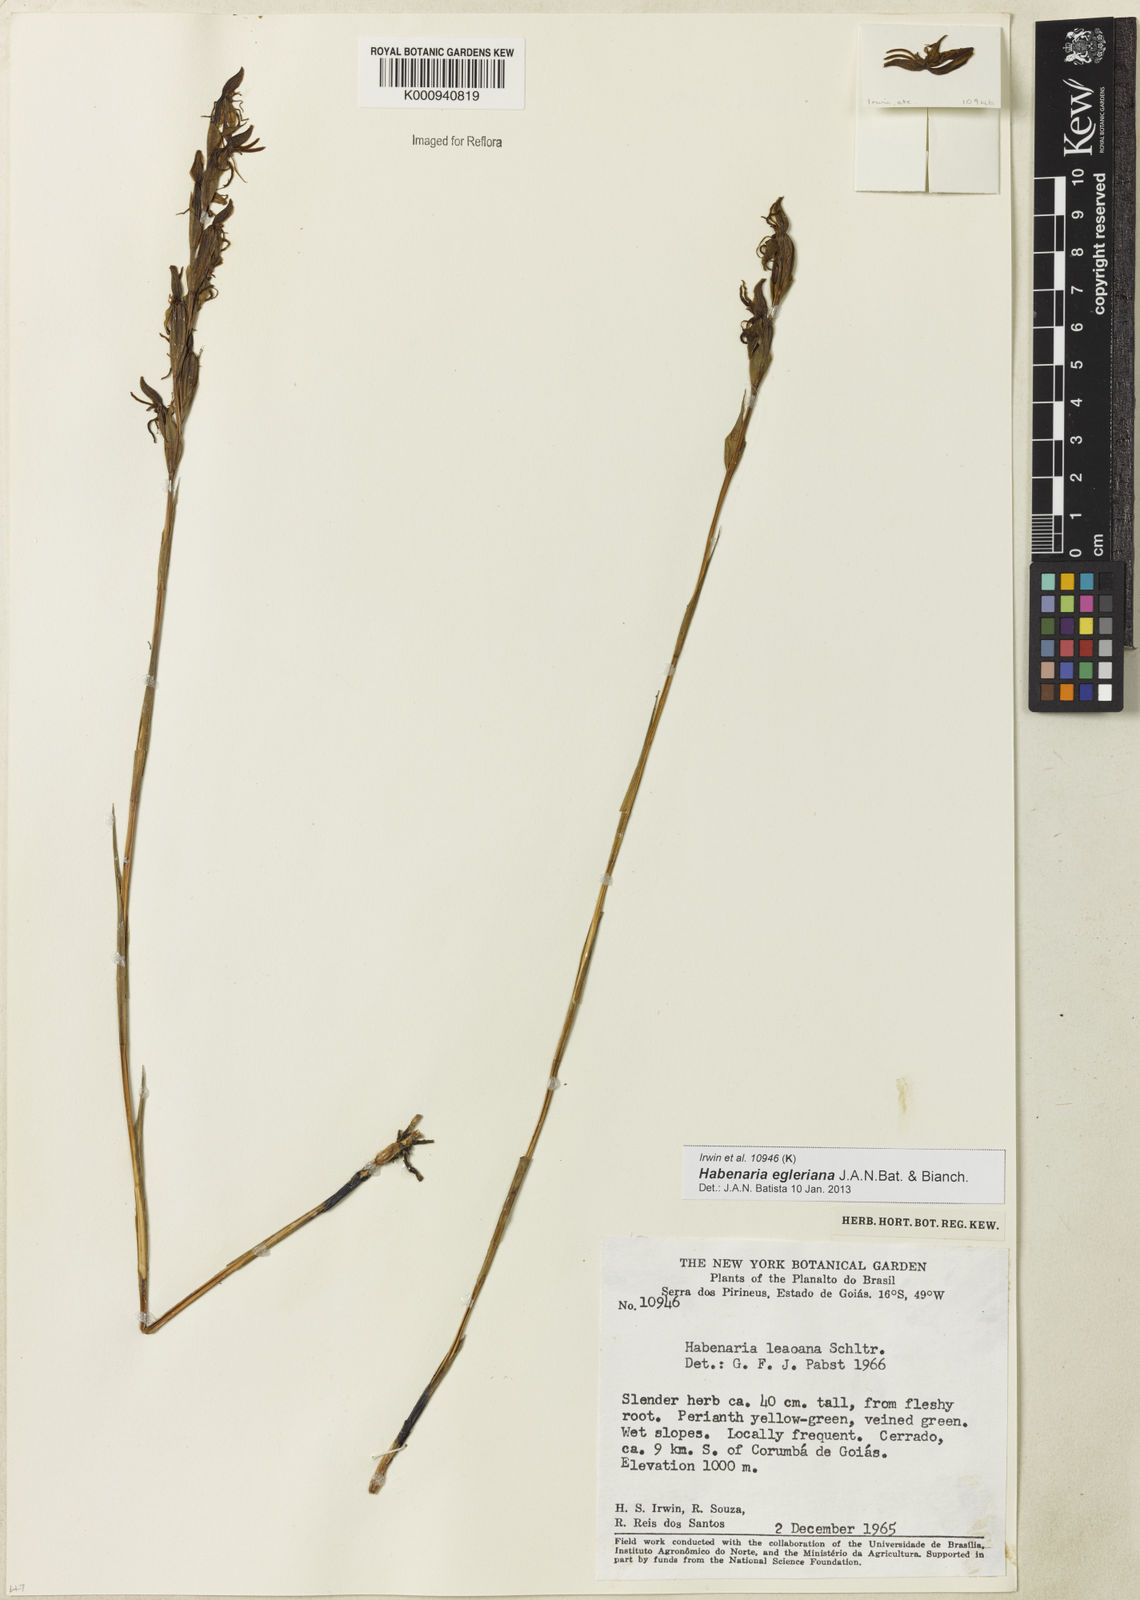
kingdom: Plantae
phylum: Tracheophyta
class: Liliopsida
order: Asparagales
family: Orchidaceae
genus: Habenaria
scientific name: Habenaria egleriana
